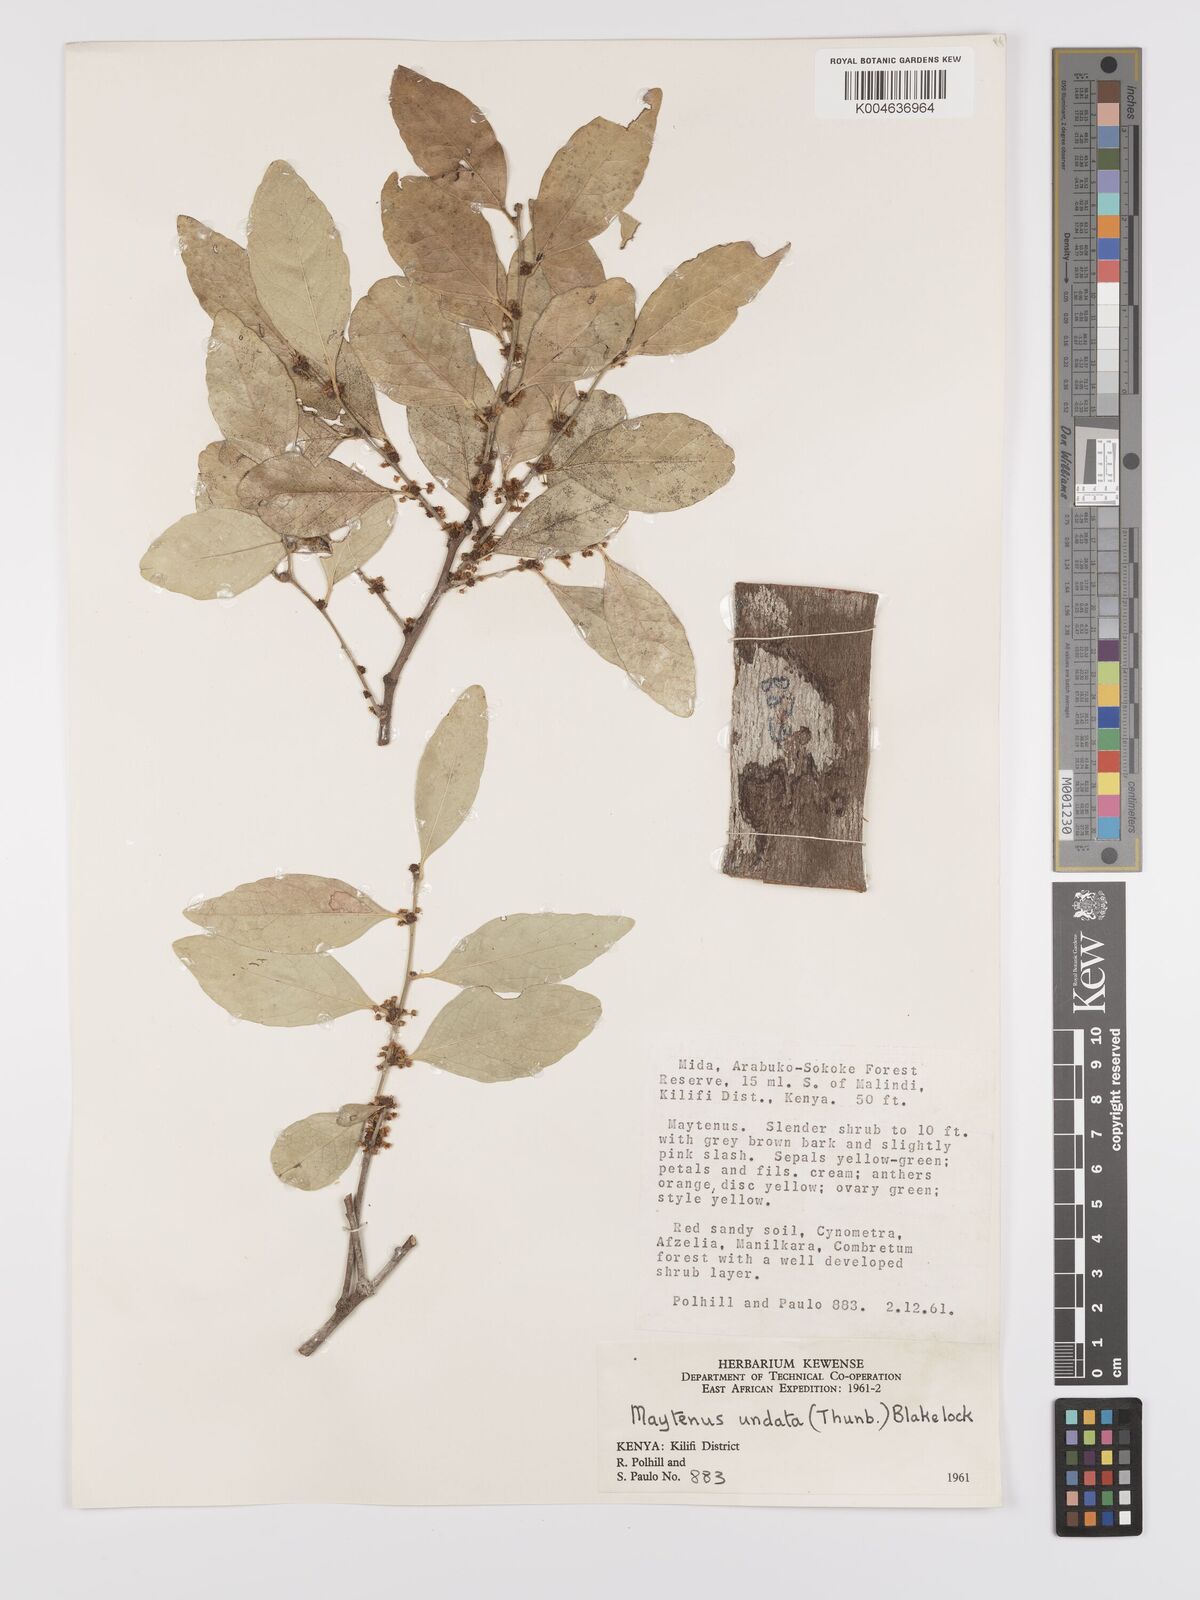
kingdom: Plantae
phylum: Tracheophyta
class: Magnoliopsida
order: Celastrales
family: Celastraceae
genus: Gymnosporia
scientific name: Gymnosporia undata
